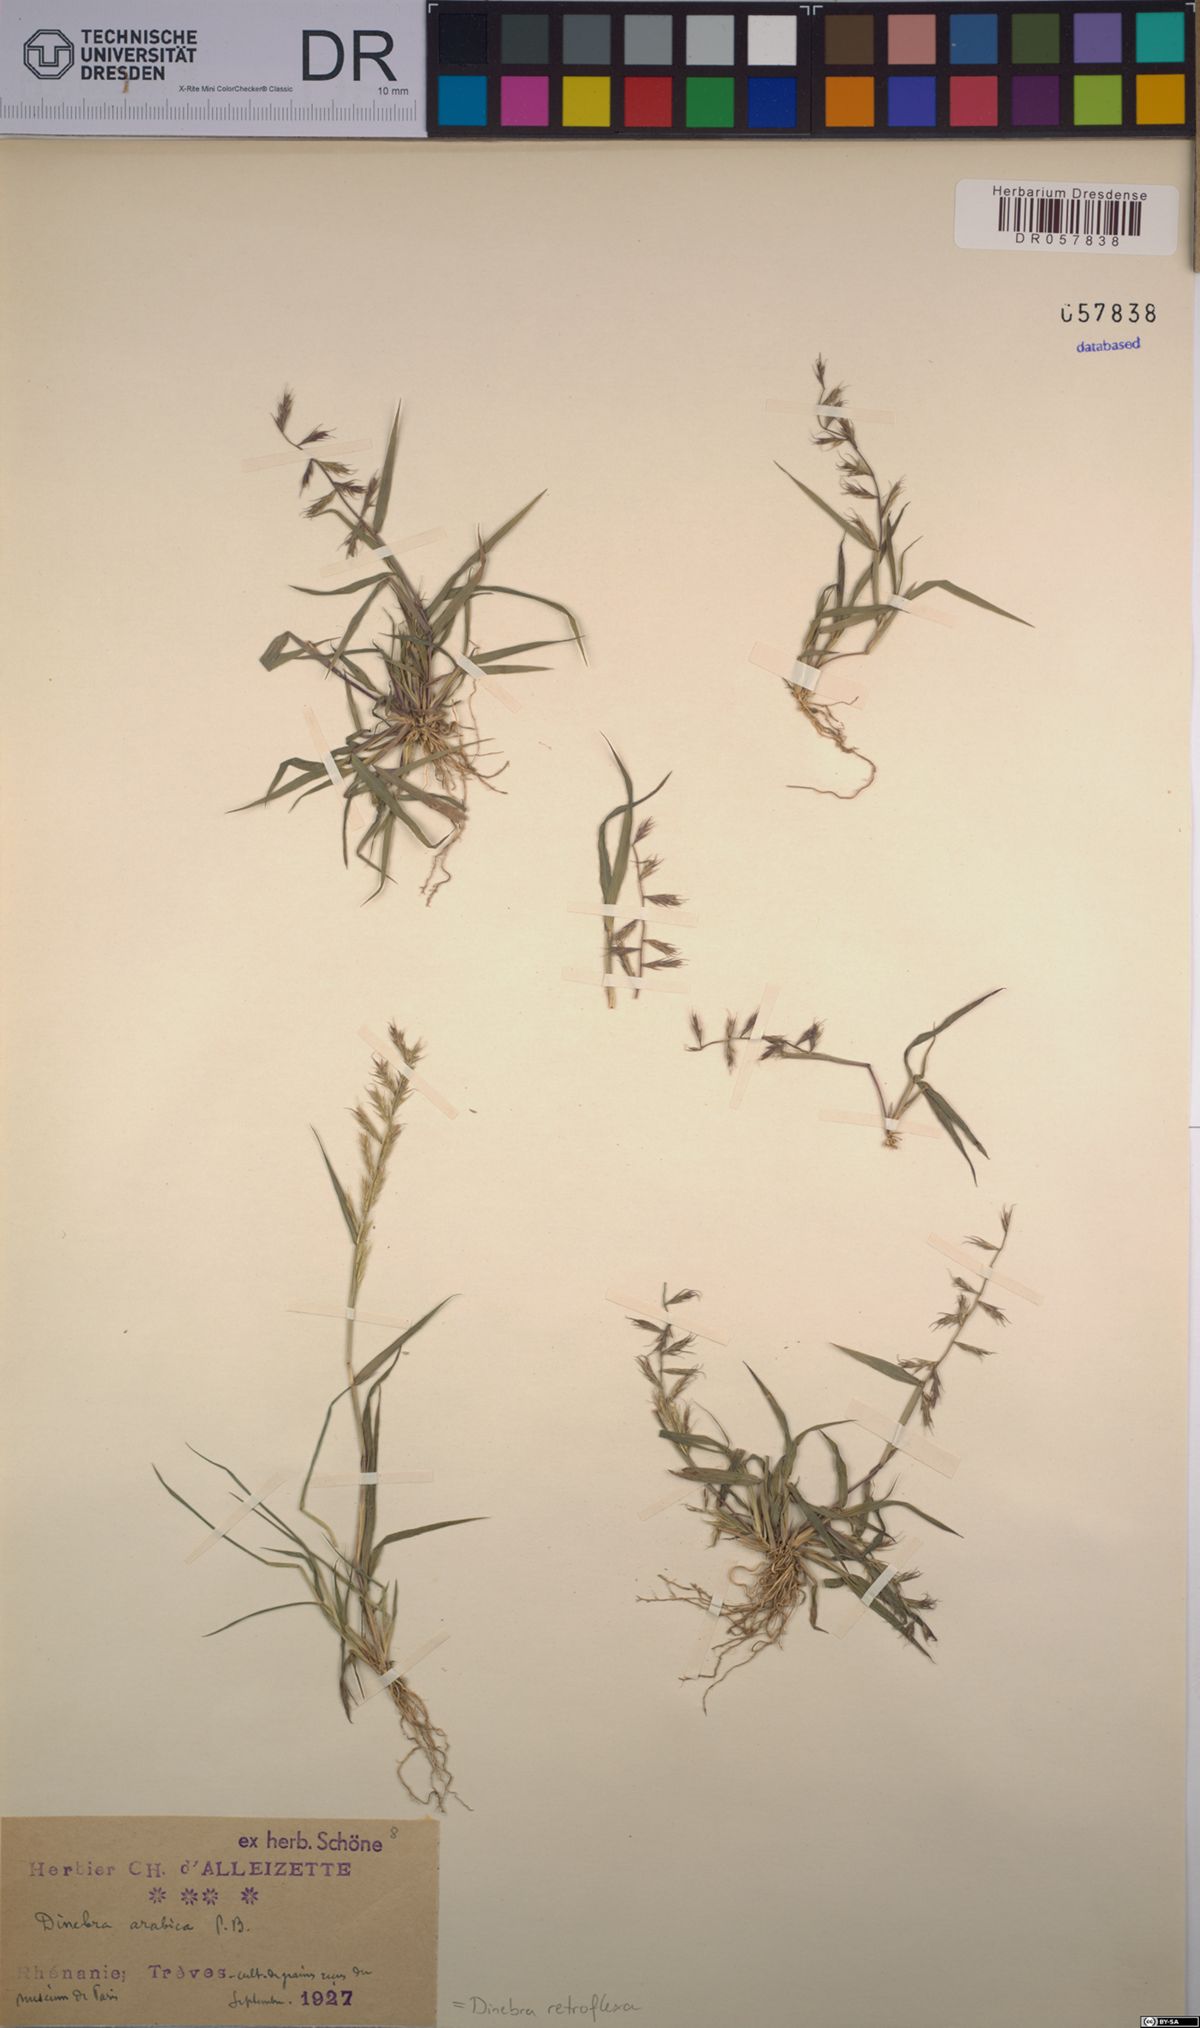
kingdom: Plantae
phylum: Tracheophyta
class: Liliopsida
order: Poales
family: Poaceae
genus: Dinebra
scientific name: Dinebra retroflexa
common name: Viper grass
